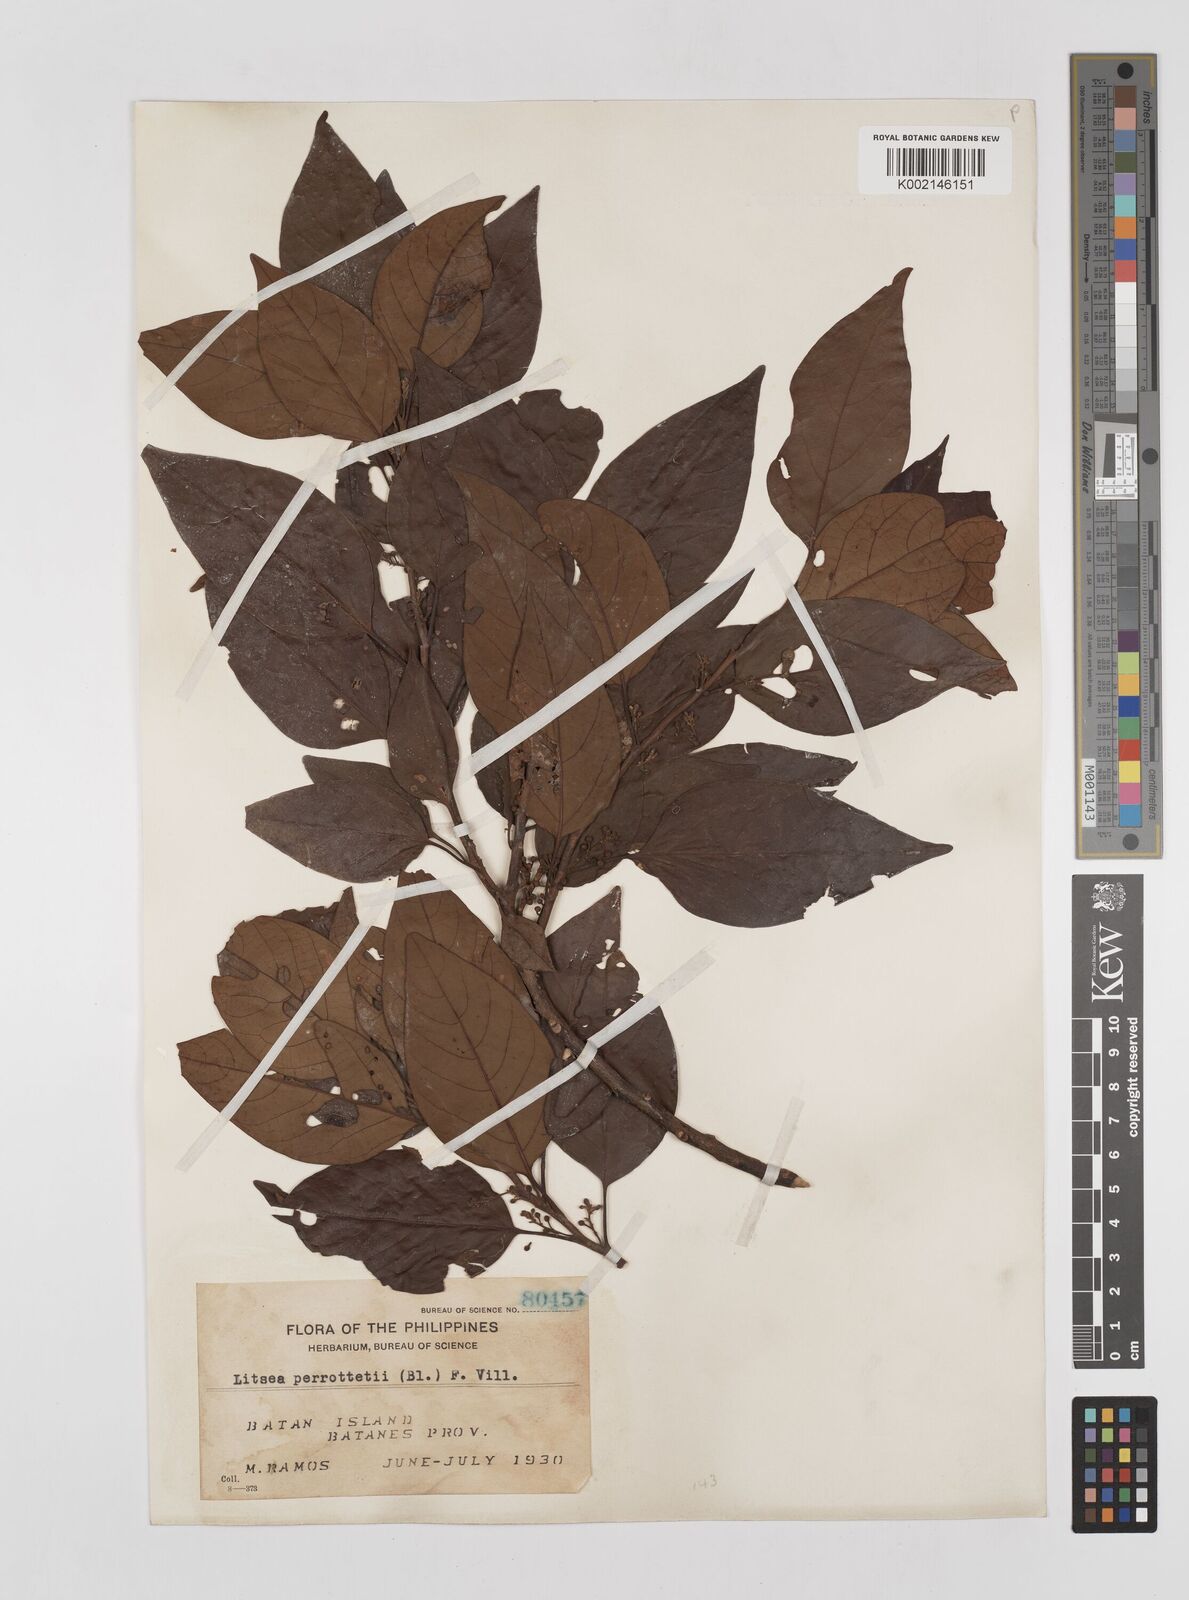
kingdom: Plantae
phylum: Tracheophyta
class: Magnoliopsida
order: Laurales
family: Lauraceae
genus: Litsea
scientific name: Litsea cordata
